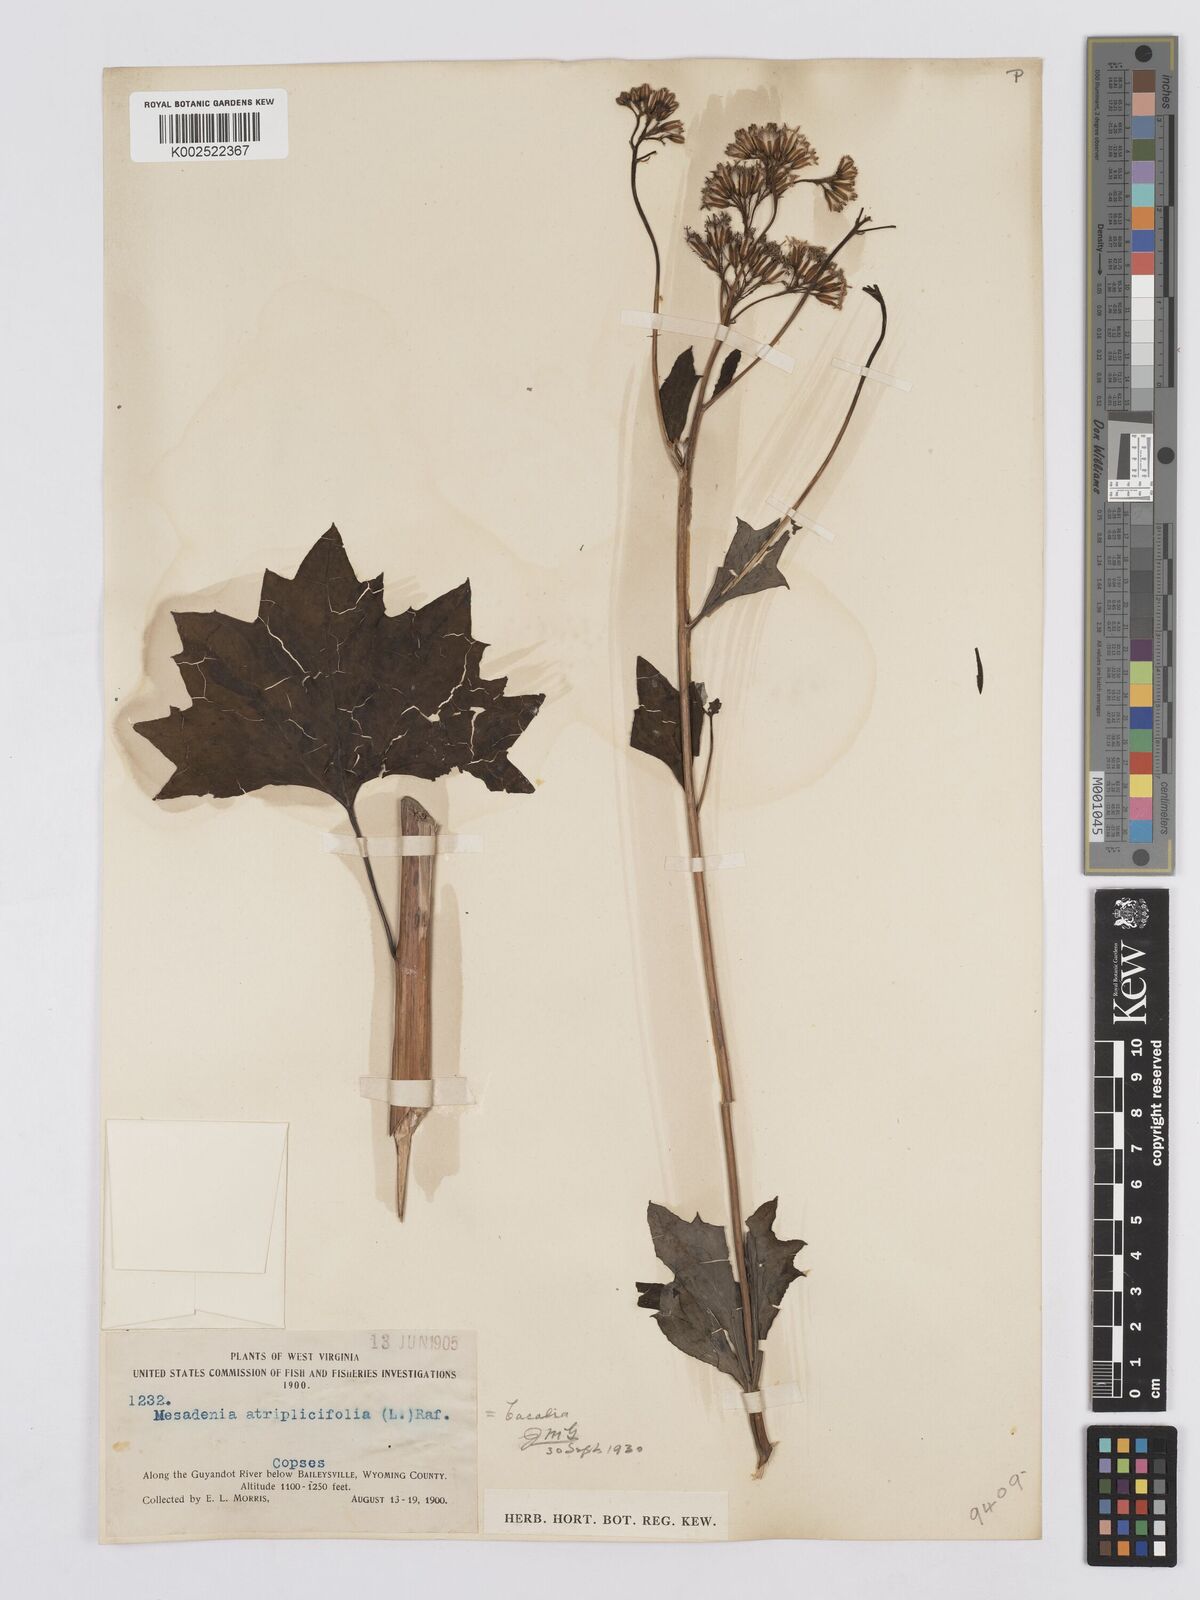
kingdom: Plantae
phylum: Tracheophyta
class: Magnoliopsida
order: Asterales
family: Asteraceae
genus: Arnoglossum
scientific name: Arnoglossum atriplicifolium
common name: Pale indian-plantain
